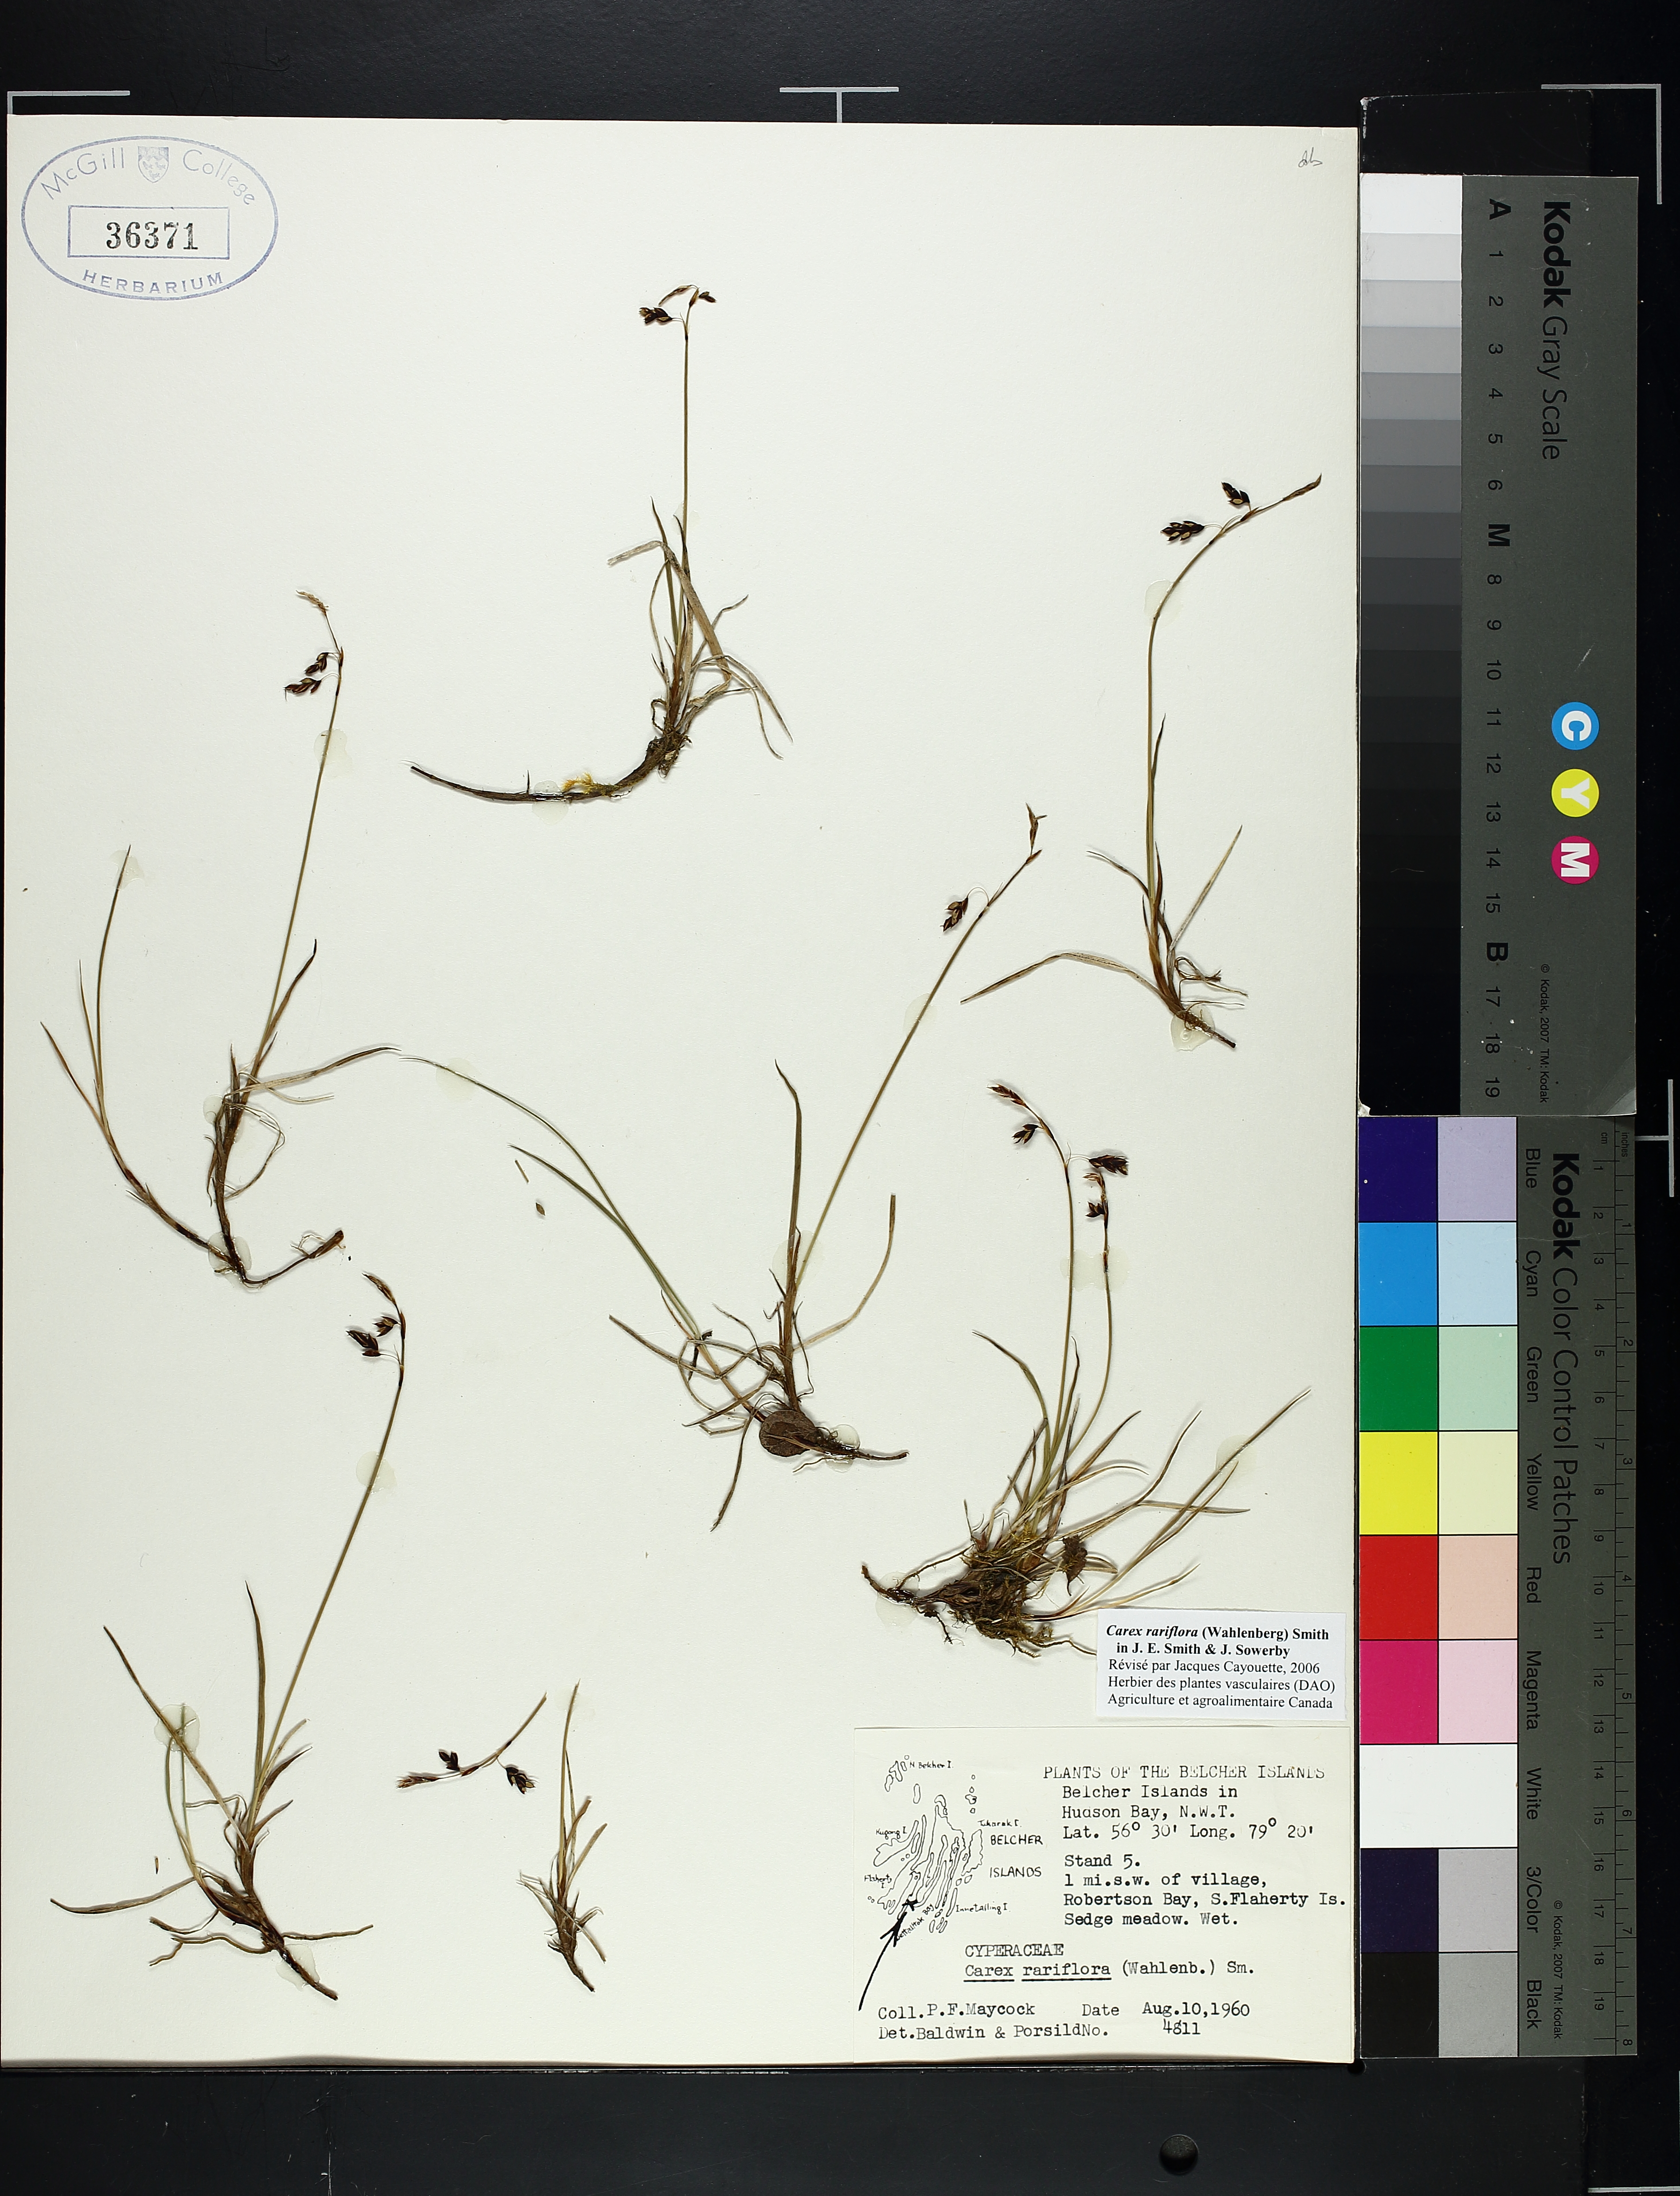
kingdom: Plantae
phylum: Tracheophyta
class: Liliopsida
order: Poales
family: Cyperaceae
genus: Carex
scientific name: Carex rariflora
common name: Loose-flowered alpine sedge
